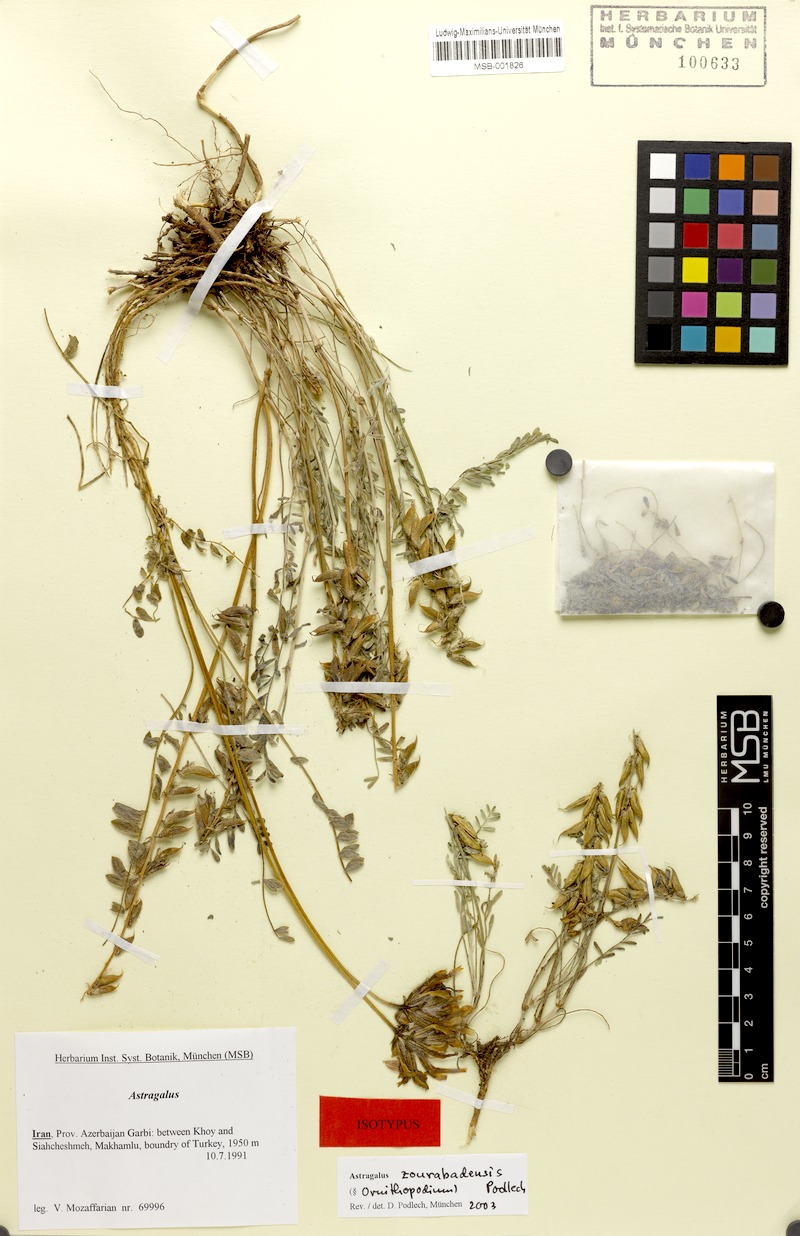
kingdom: Plantae
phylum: Tracheophyta
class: Magnoliopsida
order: Fabales
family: Fabaceae
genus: Astragalus
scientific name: Astragalus arguricus
